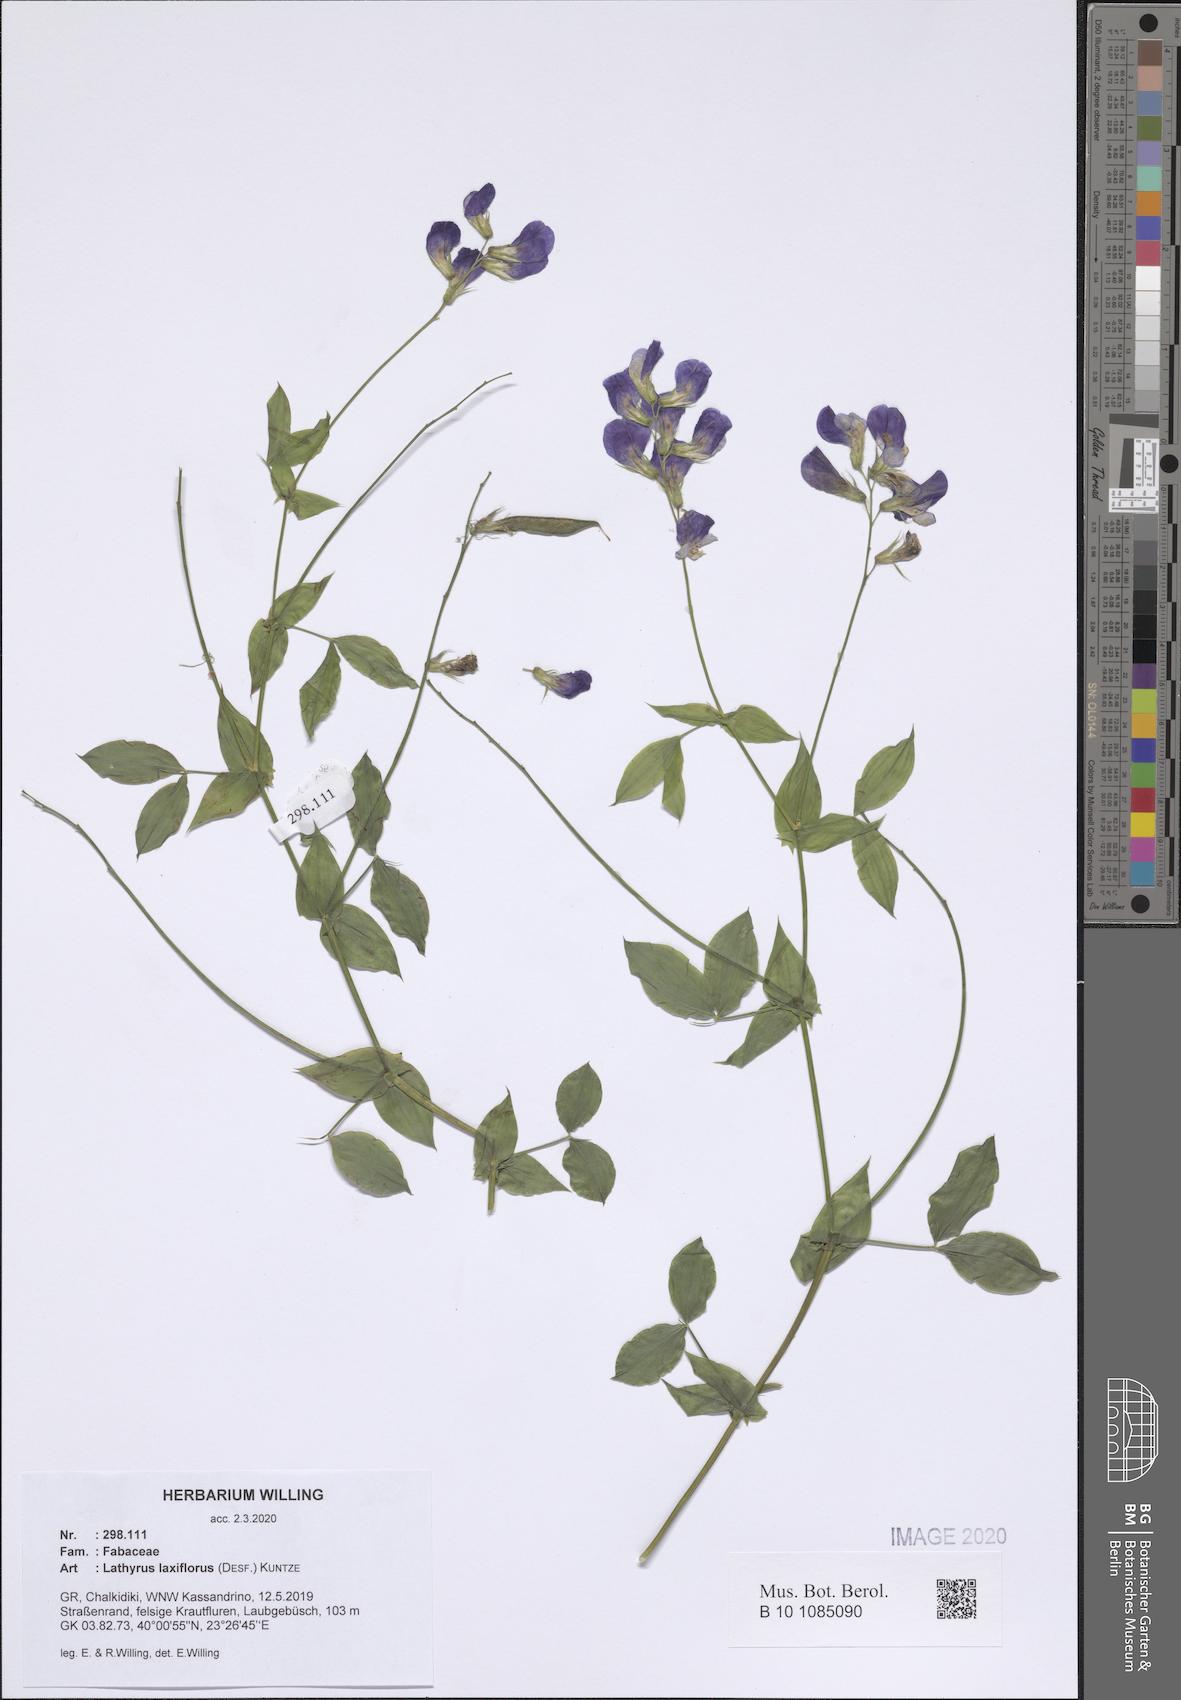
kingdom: Plantae
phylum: Tracheophyta
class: Magnoliopsida
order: Fabales
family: Fabaceae
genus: Lathyrus
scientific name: Lathyrus laxiflorus
